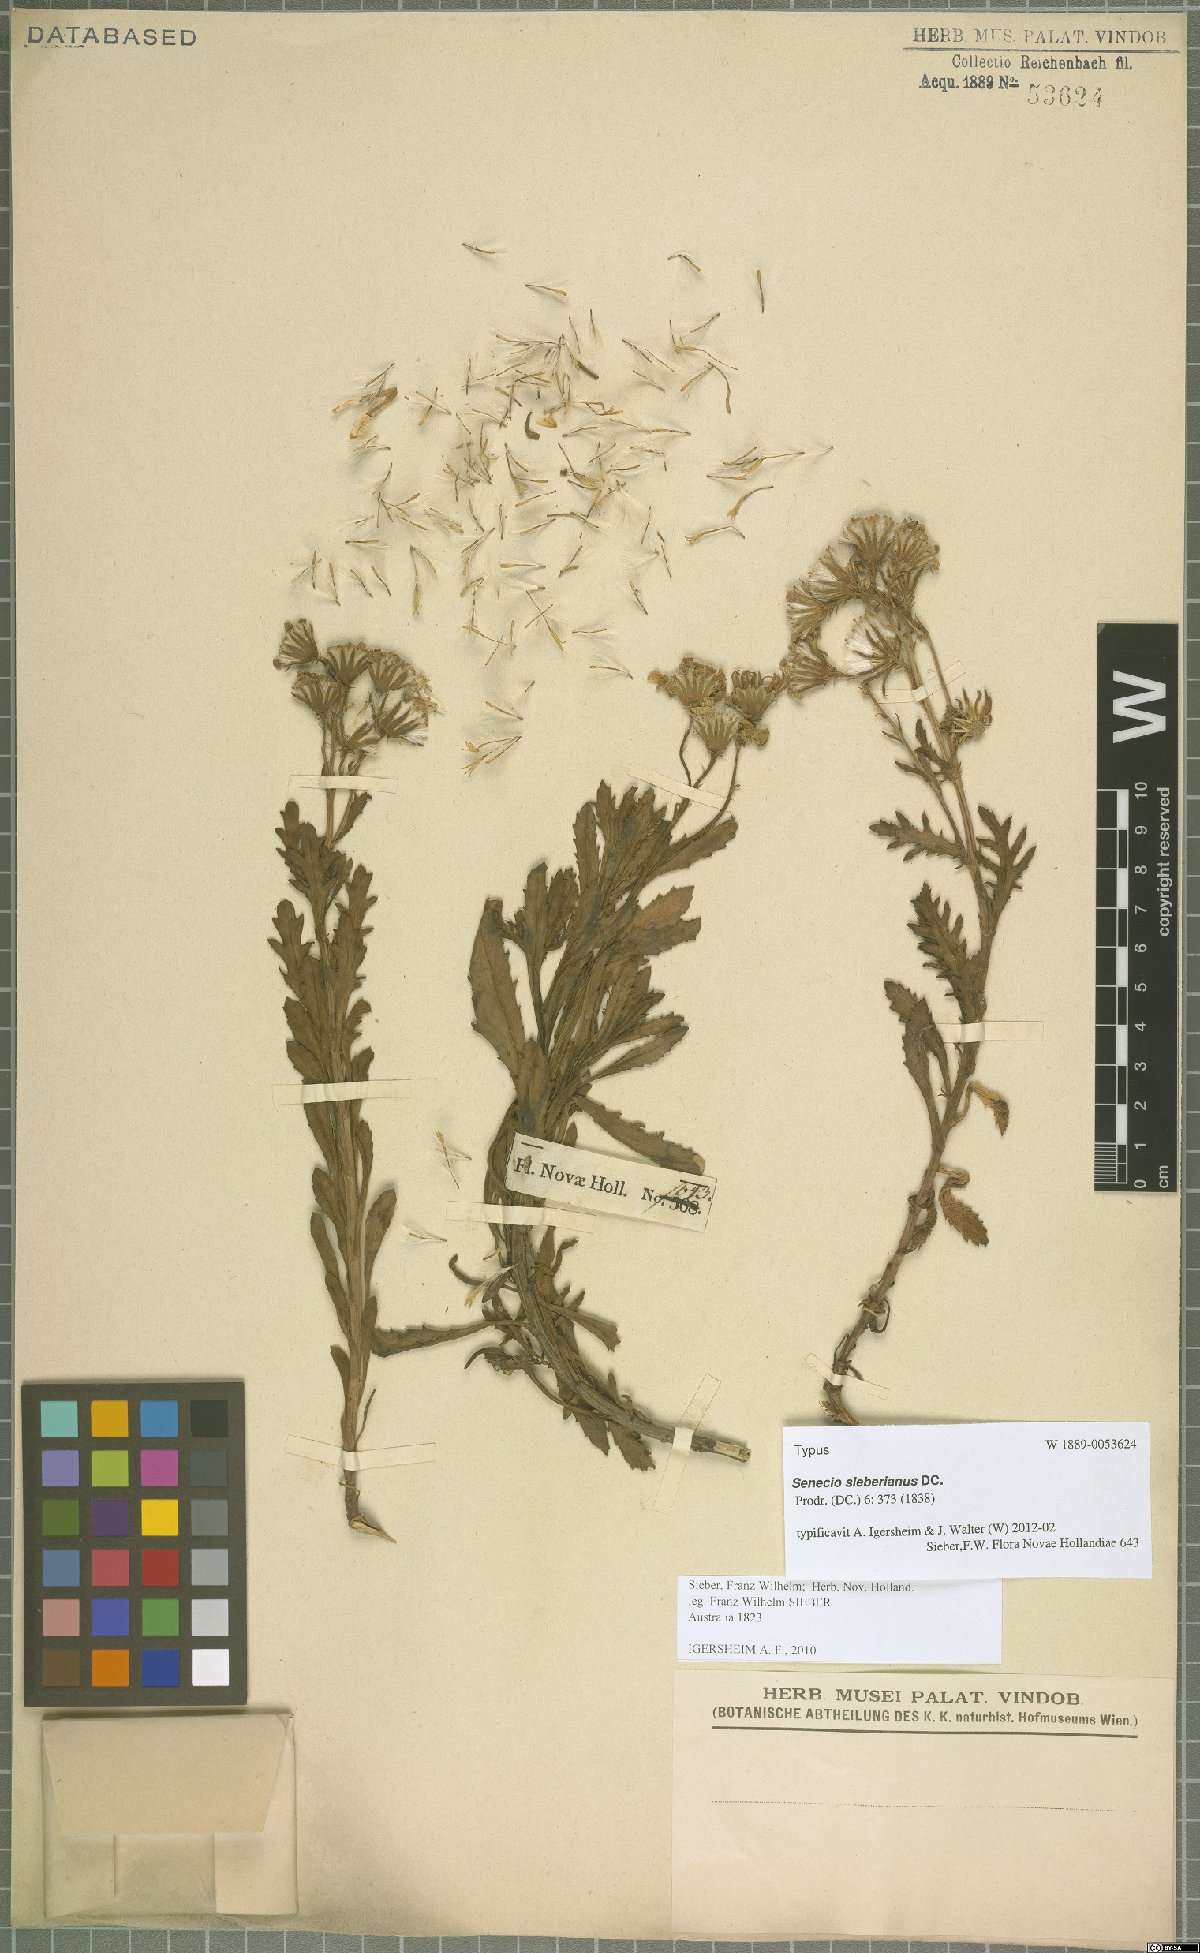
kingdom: Plantae
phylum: Tracheophyta
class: Magnoliopsida
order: Asterales
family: Asteraceae
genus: Senecio
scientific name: Senecio pinnatifolius
